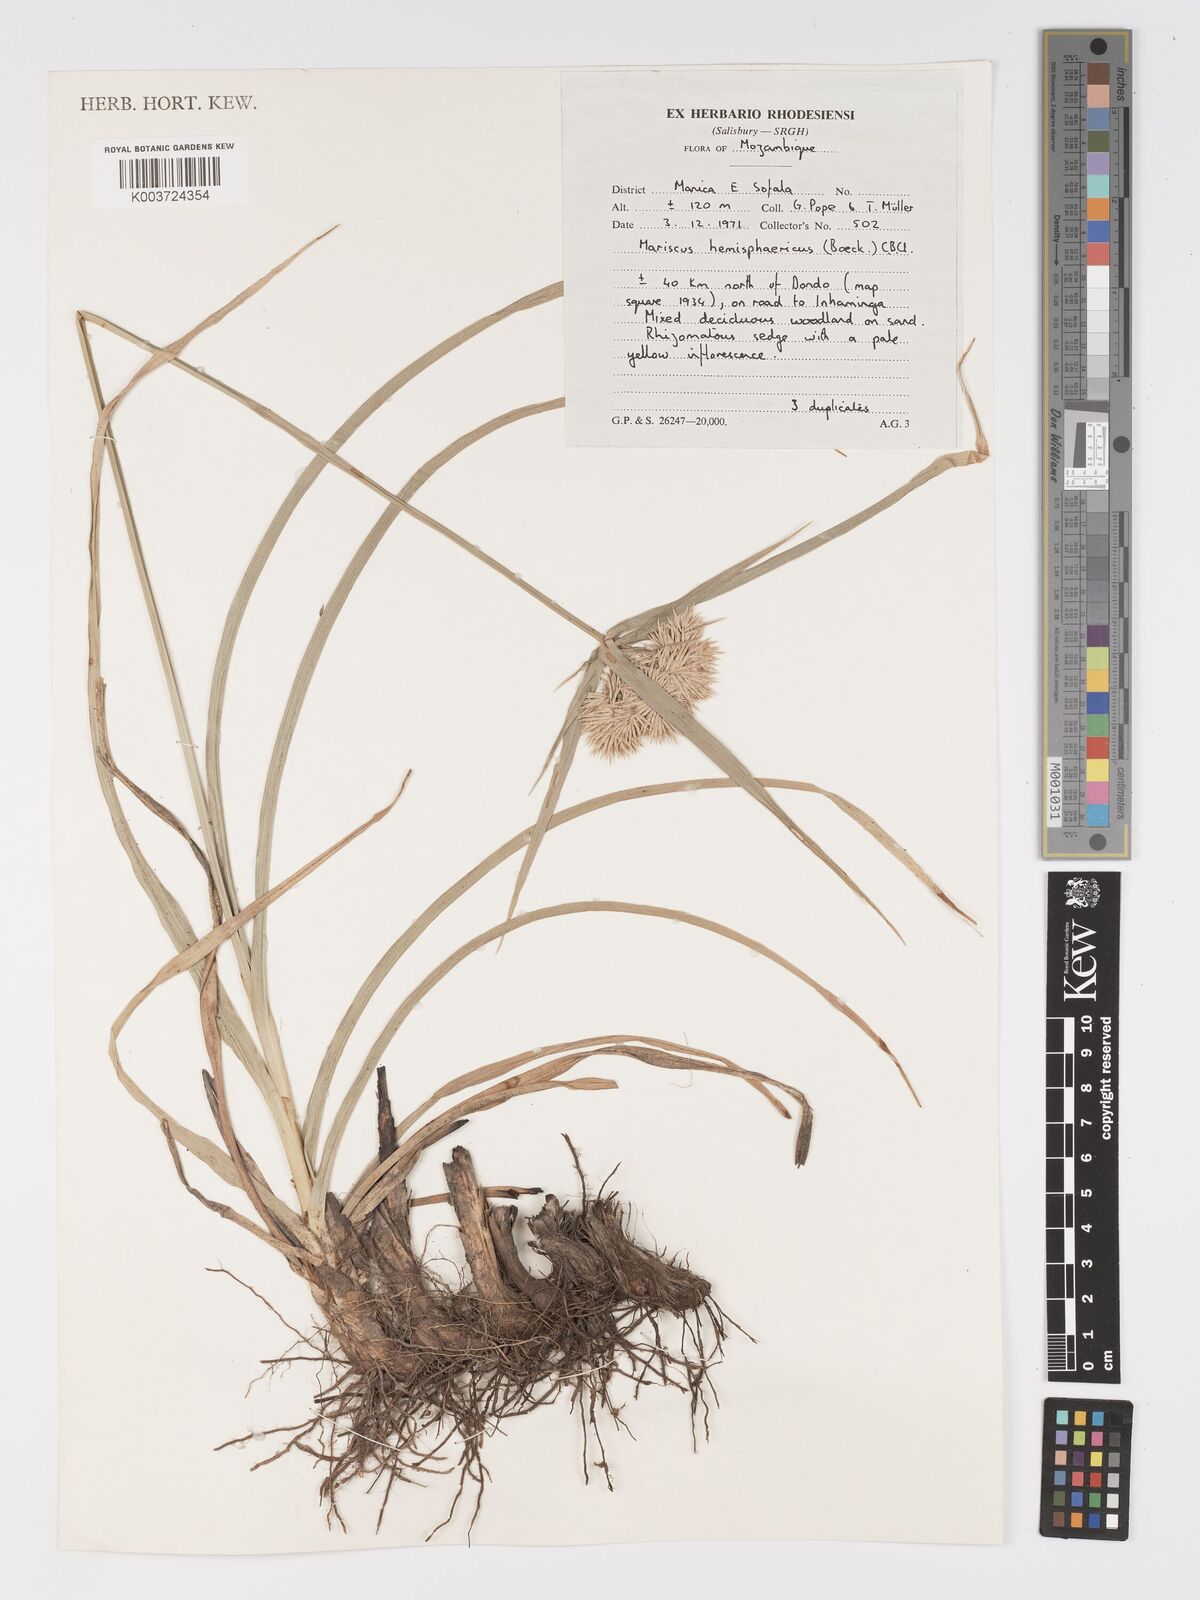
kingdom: Plantae
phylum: Tracheophyta
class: Liliopsida
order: Poales
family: Cyperaceae
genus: Cyperus
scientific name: Cyperus hemisphaericus
